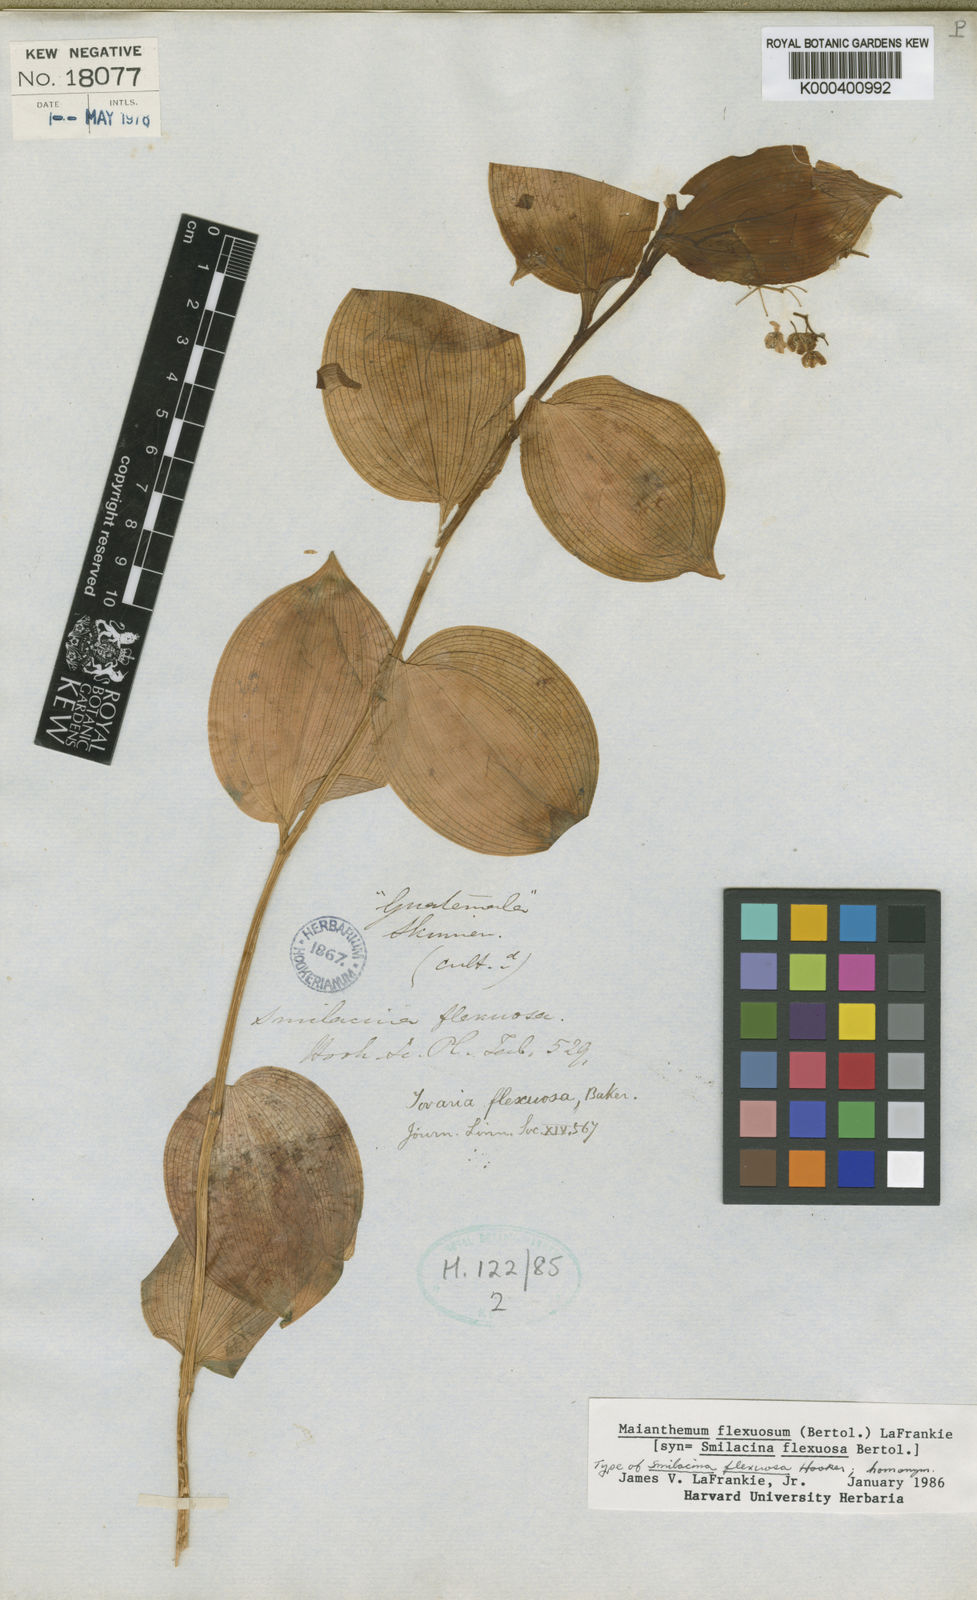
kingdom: Plantae
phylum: Tracheophyta
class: Liliopsida
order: Asparagales
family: Asparagaceae
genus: Maianthemum
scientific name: Maianthemum flexuosum
